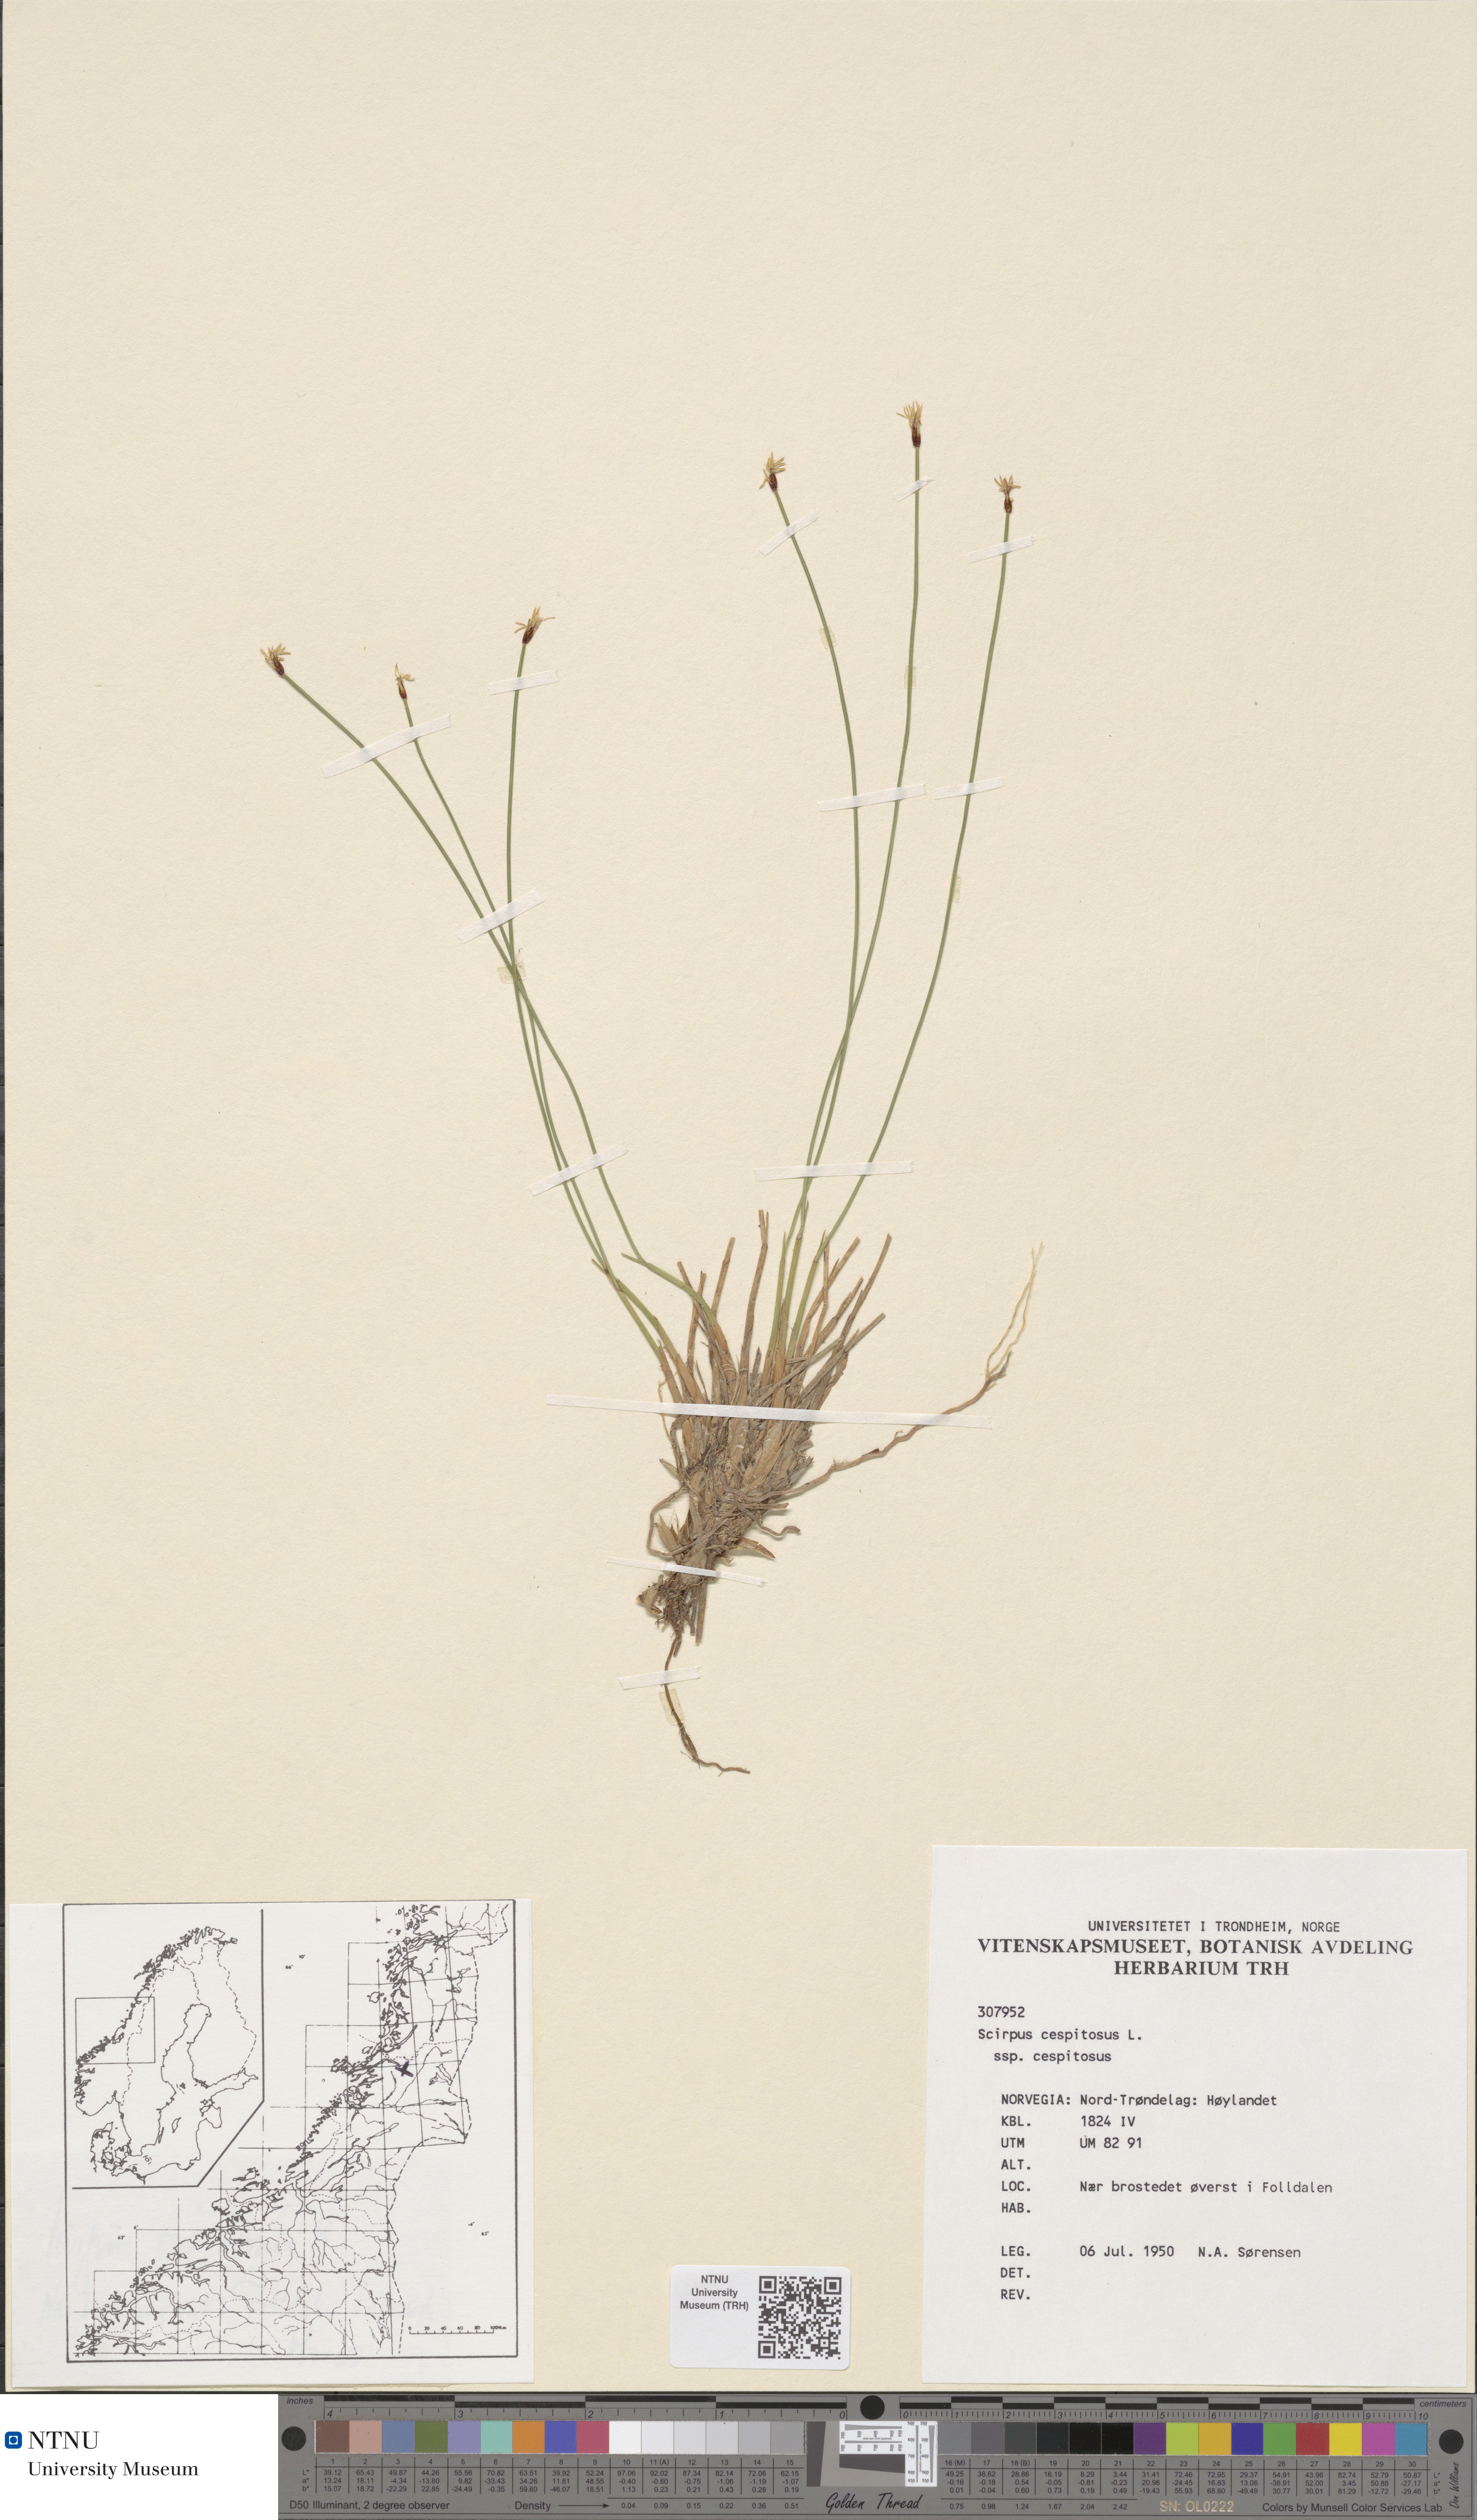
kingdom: Plantae
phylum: Tracheophyta
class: Liliopsida
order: Poales
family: Cyperaceae
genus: Trichophorum
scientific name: Trichophorum cespitosum
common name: Cespitose bulrush
